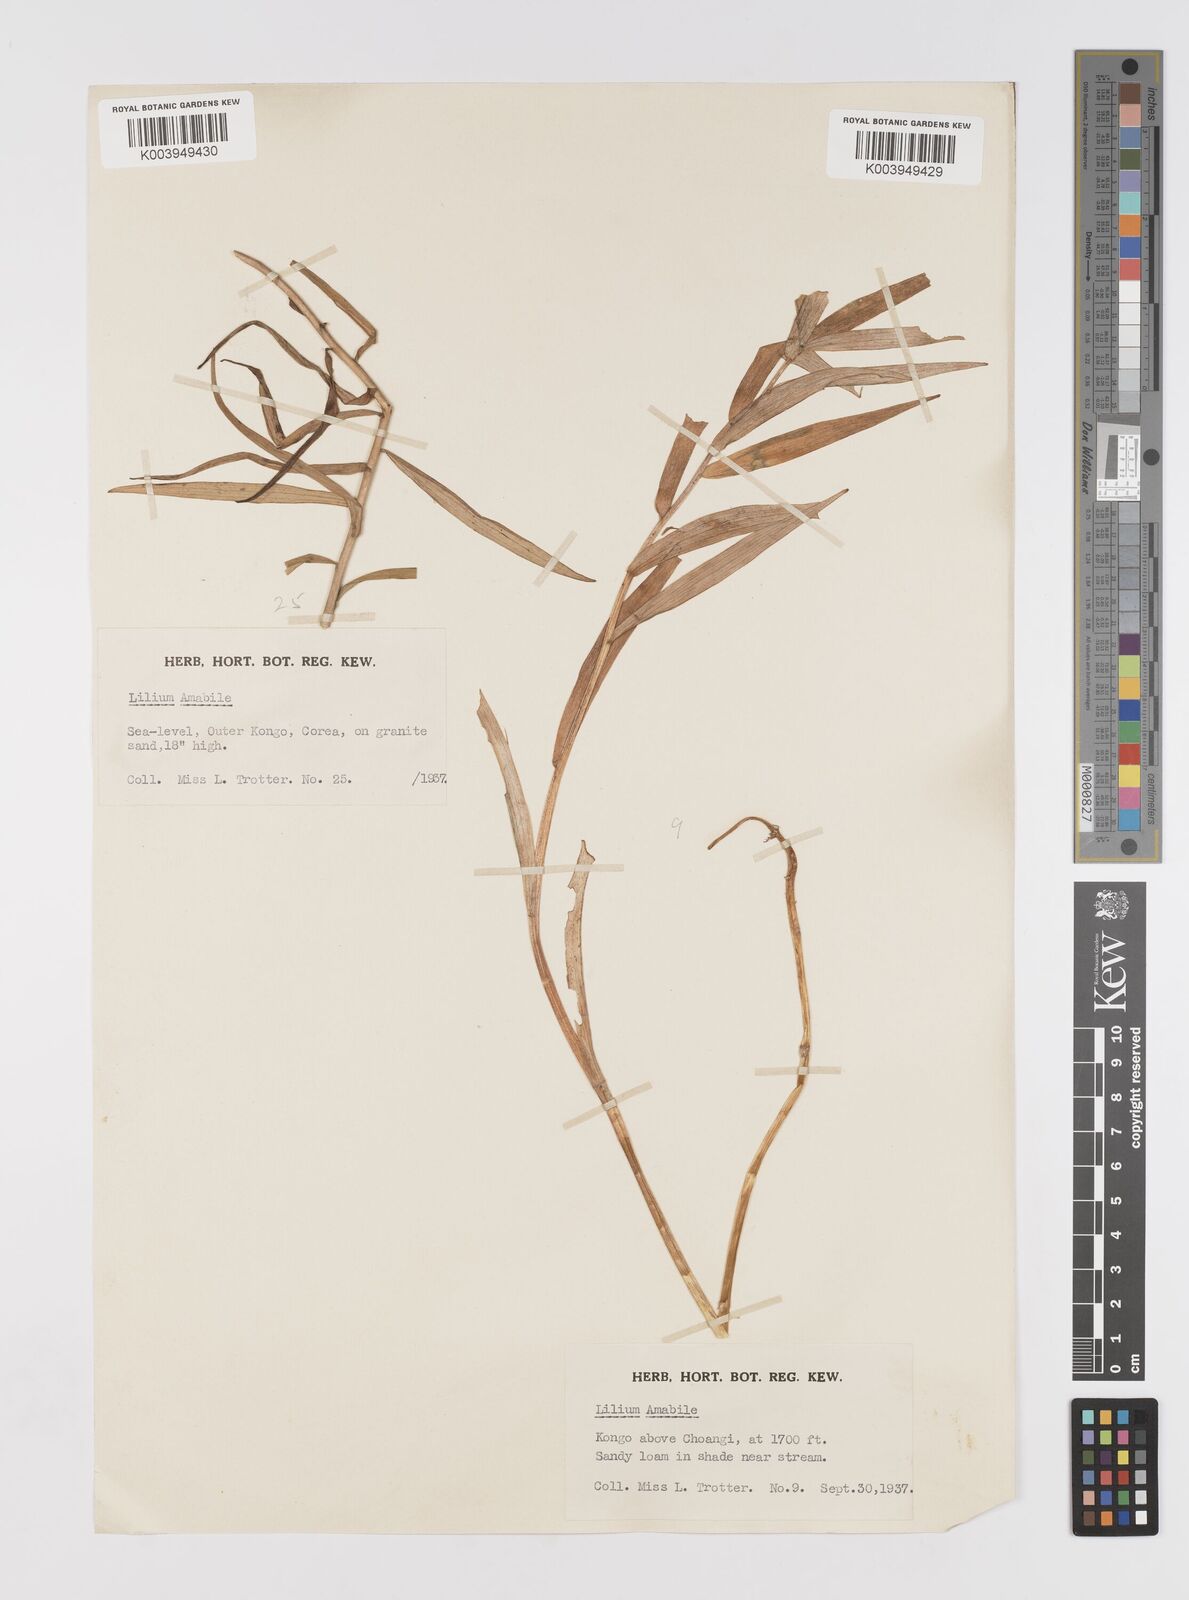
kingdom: Plantae
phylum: Tracheophyta
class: Liliopsida
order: Liliales
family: Liliaceae
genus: Lilium
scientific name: Lilium amabile
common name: Korean lily
